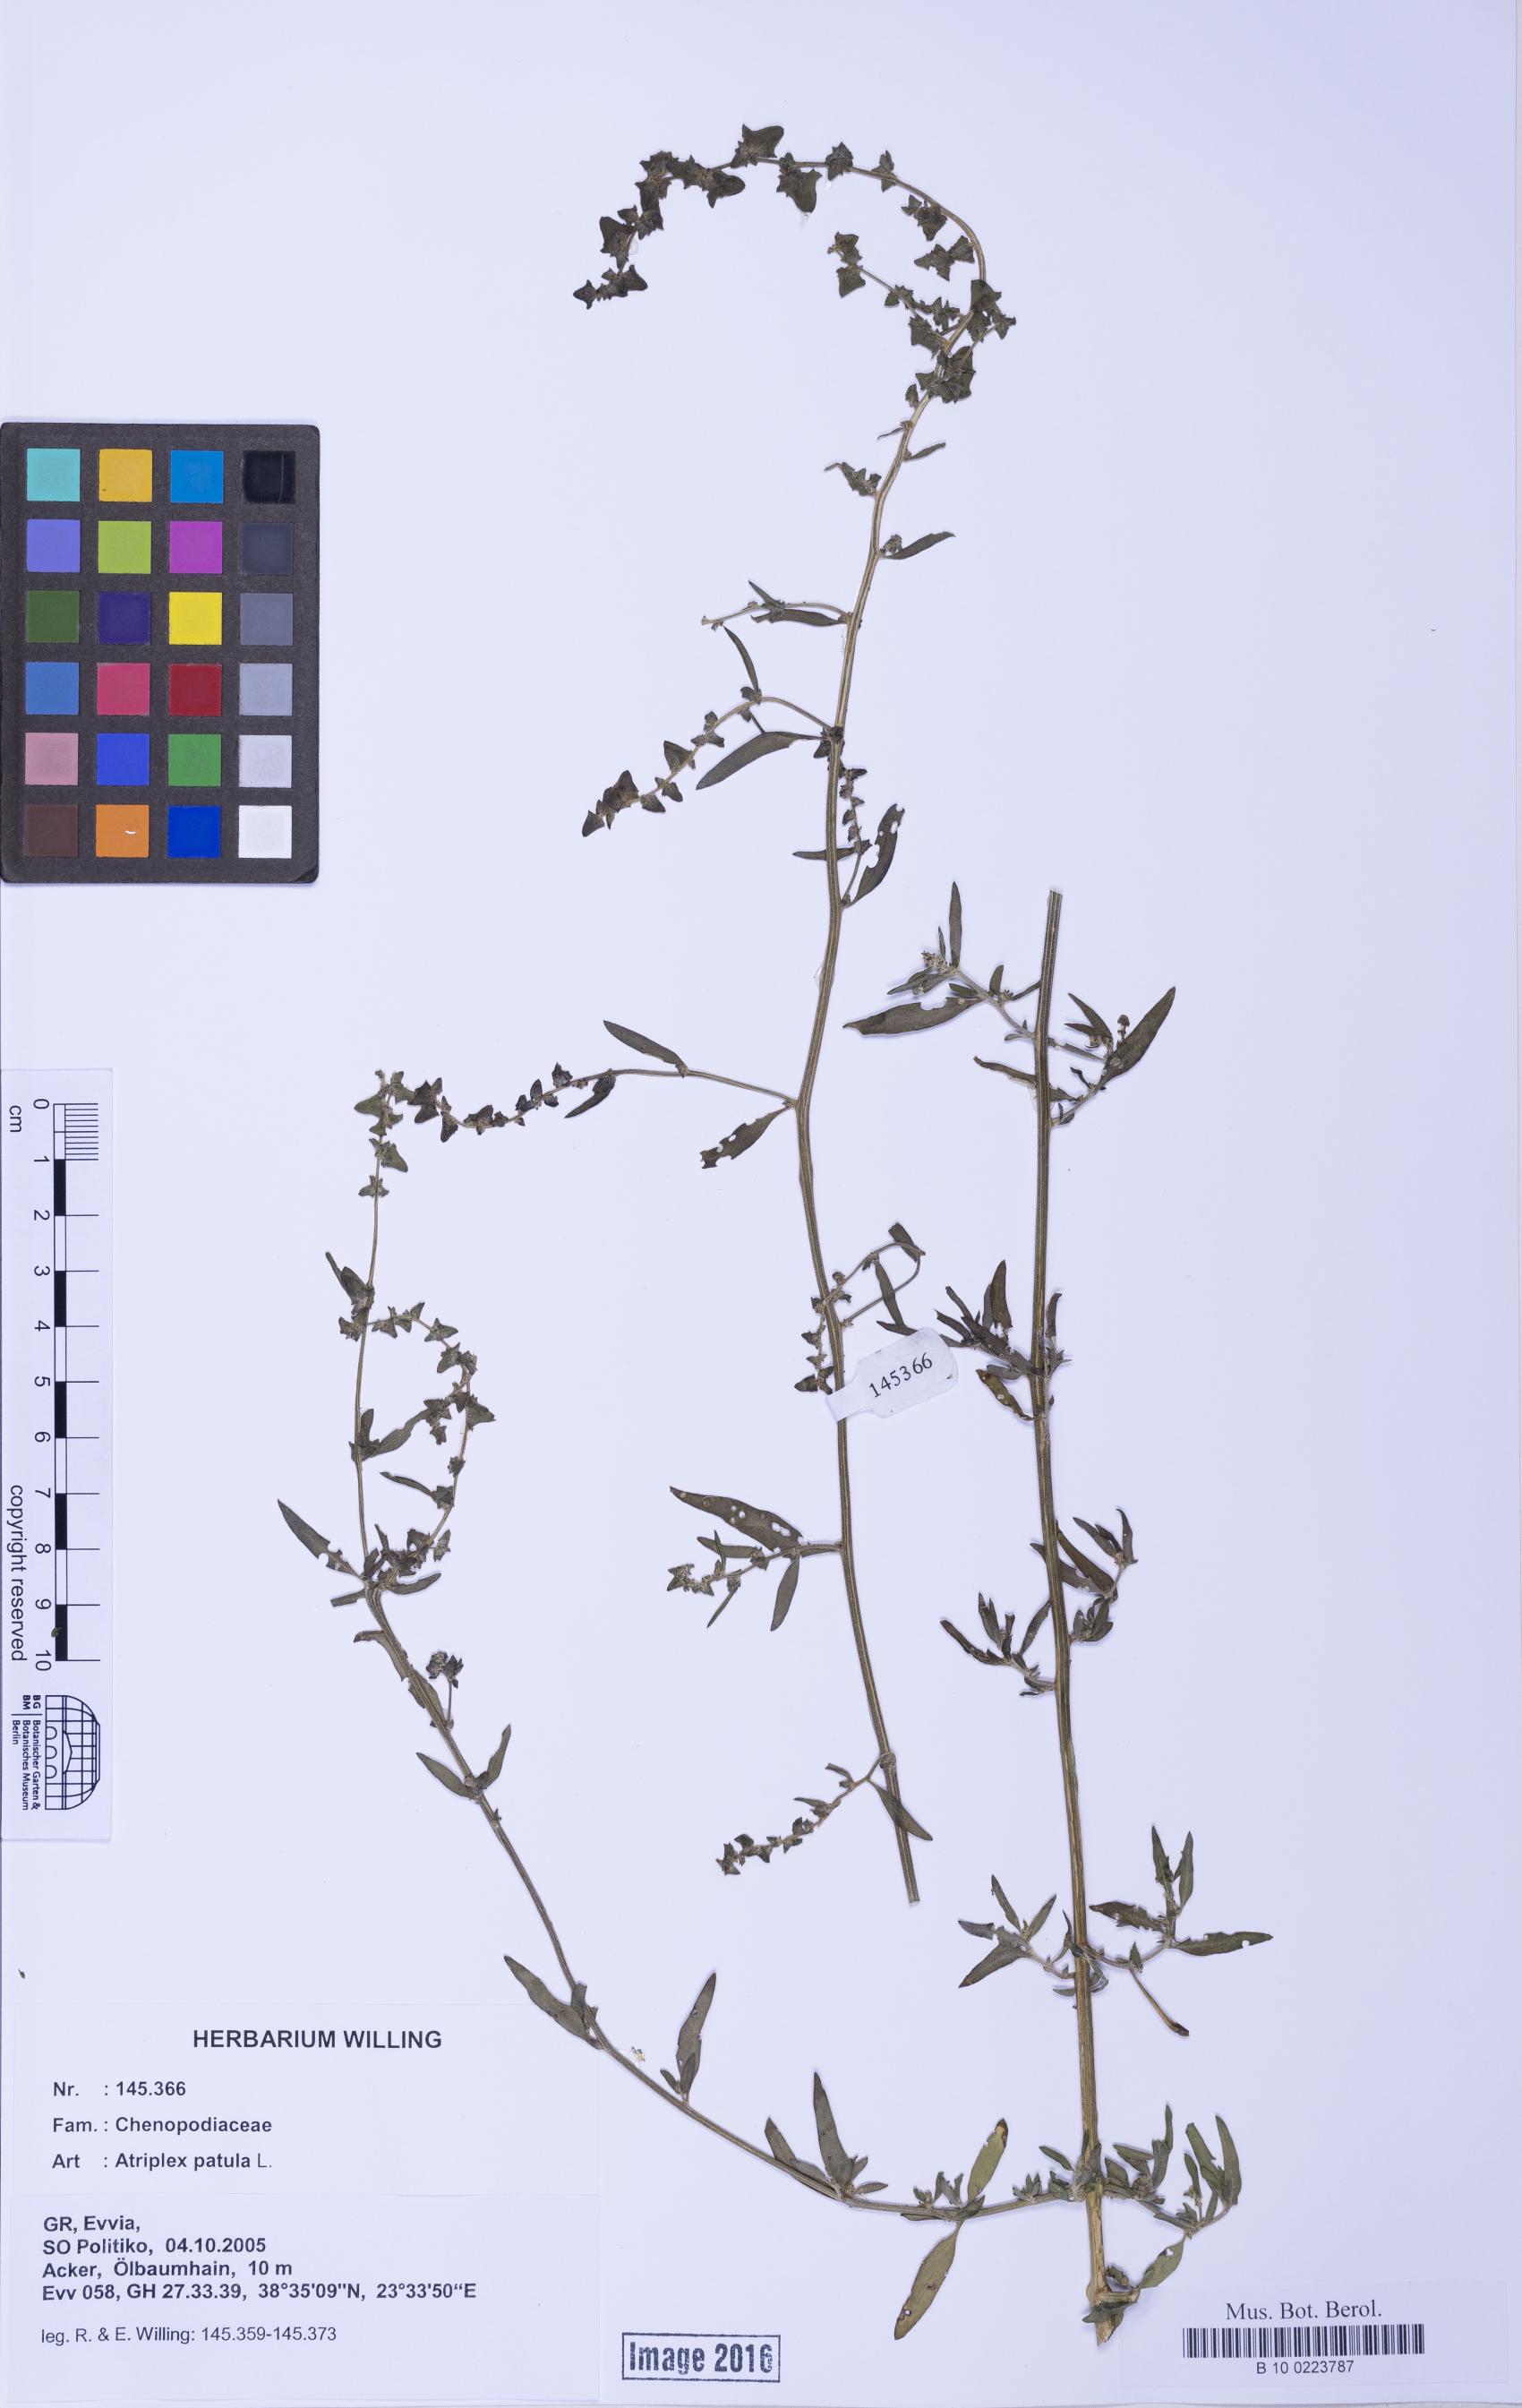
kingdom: Plantae
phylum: Tracheophyta
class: Magnoliopsida
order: Caryophyllales
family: Amaranthaceae
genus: Atriplex
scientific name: Atriplex patula
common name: Common orache
